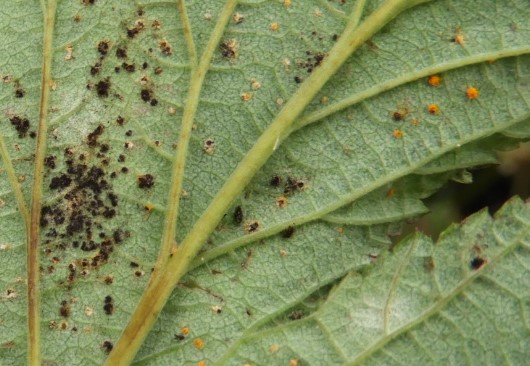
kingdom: Fungi
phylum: Basidiomycota
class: Pucciniomycetes
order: Pucciniales
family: Raveneliaceae
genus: Triphragmium
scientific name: Triphragmium ulmariae
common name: almindelig mjødurtrust
